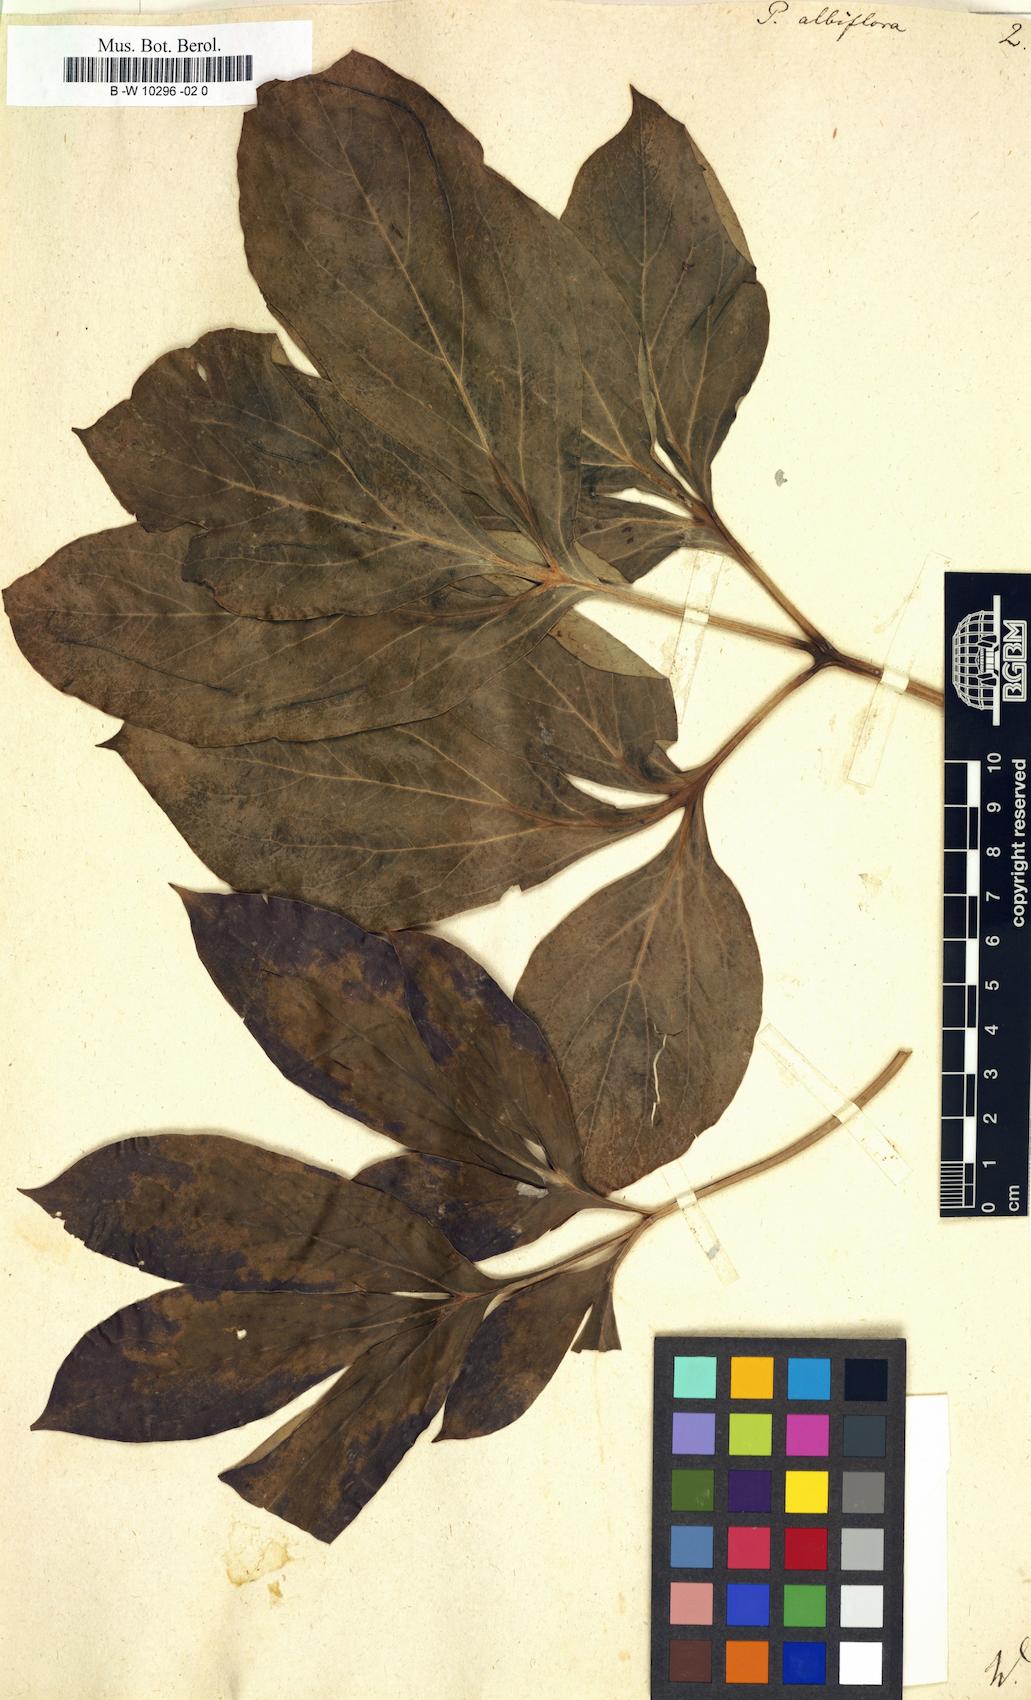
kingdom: Plantae
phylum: Tracheophyta
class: Magnoliopsida
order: Saxifragales
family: Paeoniaceae
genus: Paeonia
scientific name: Paeonia lactiflora
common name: Chinese peony
